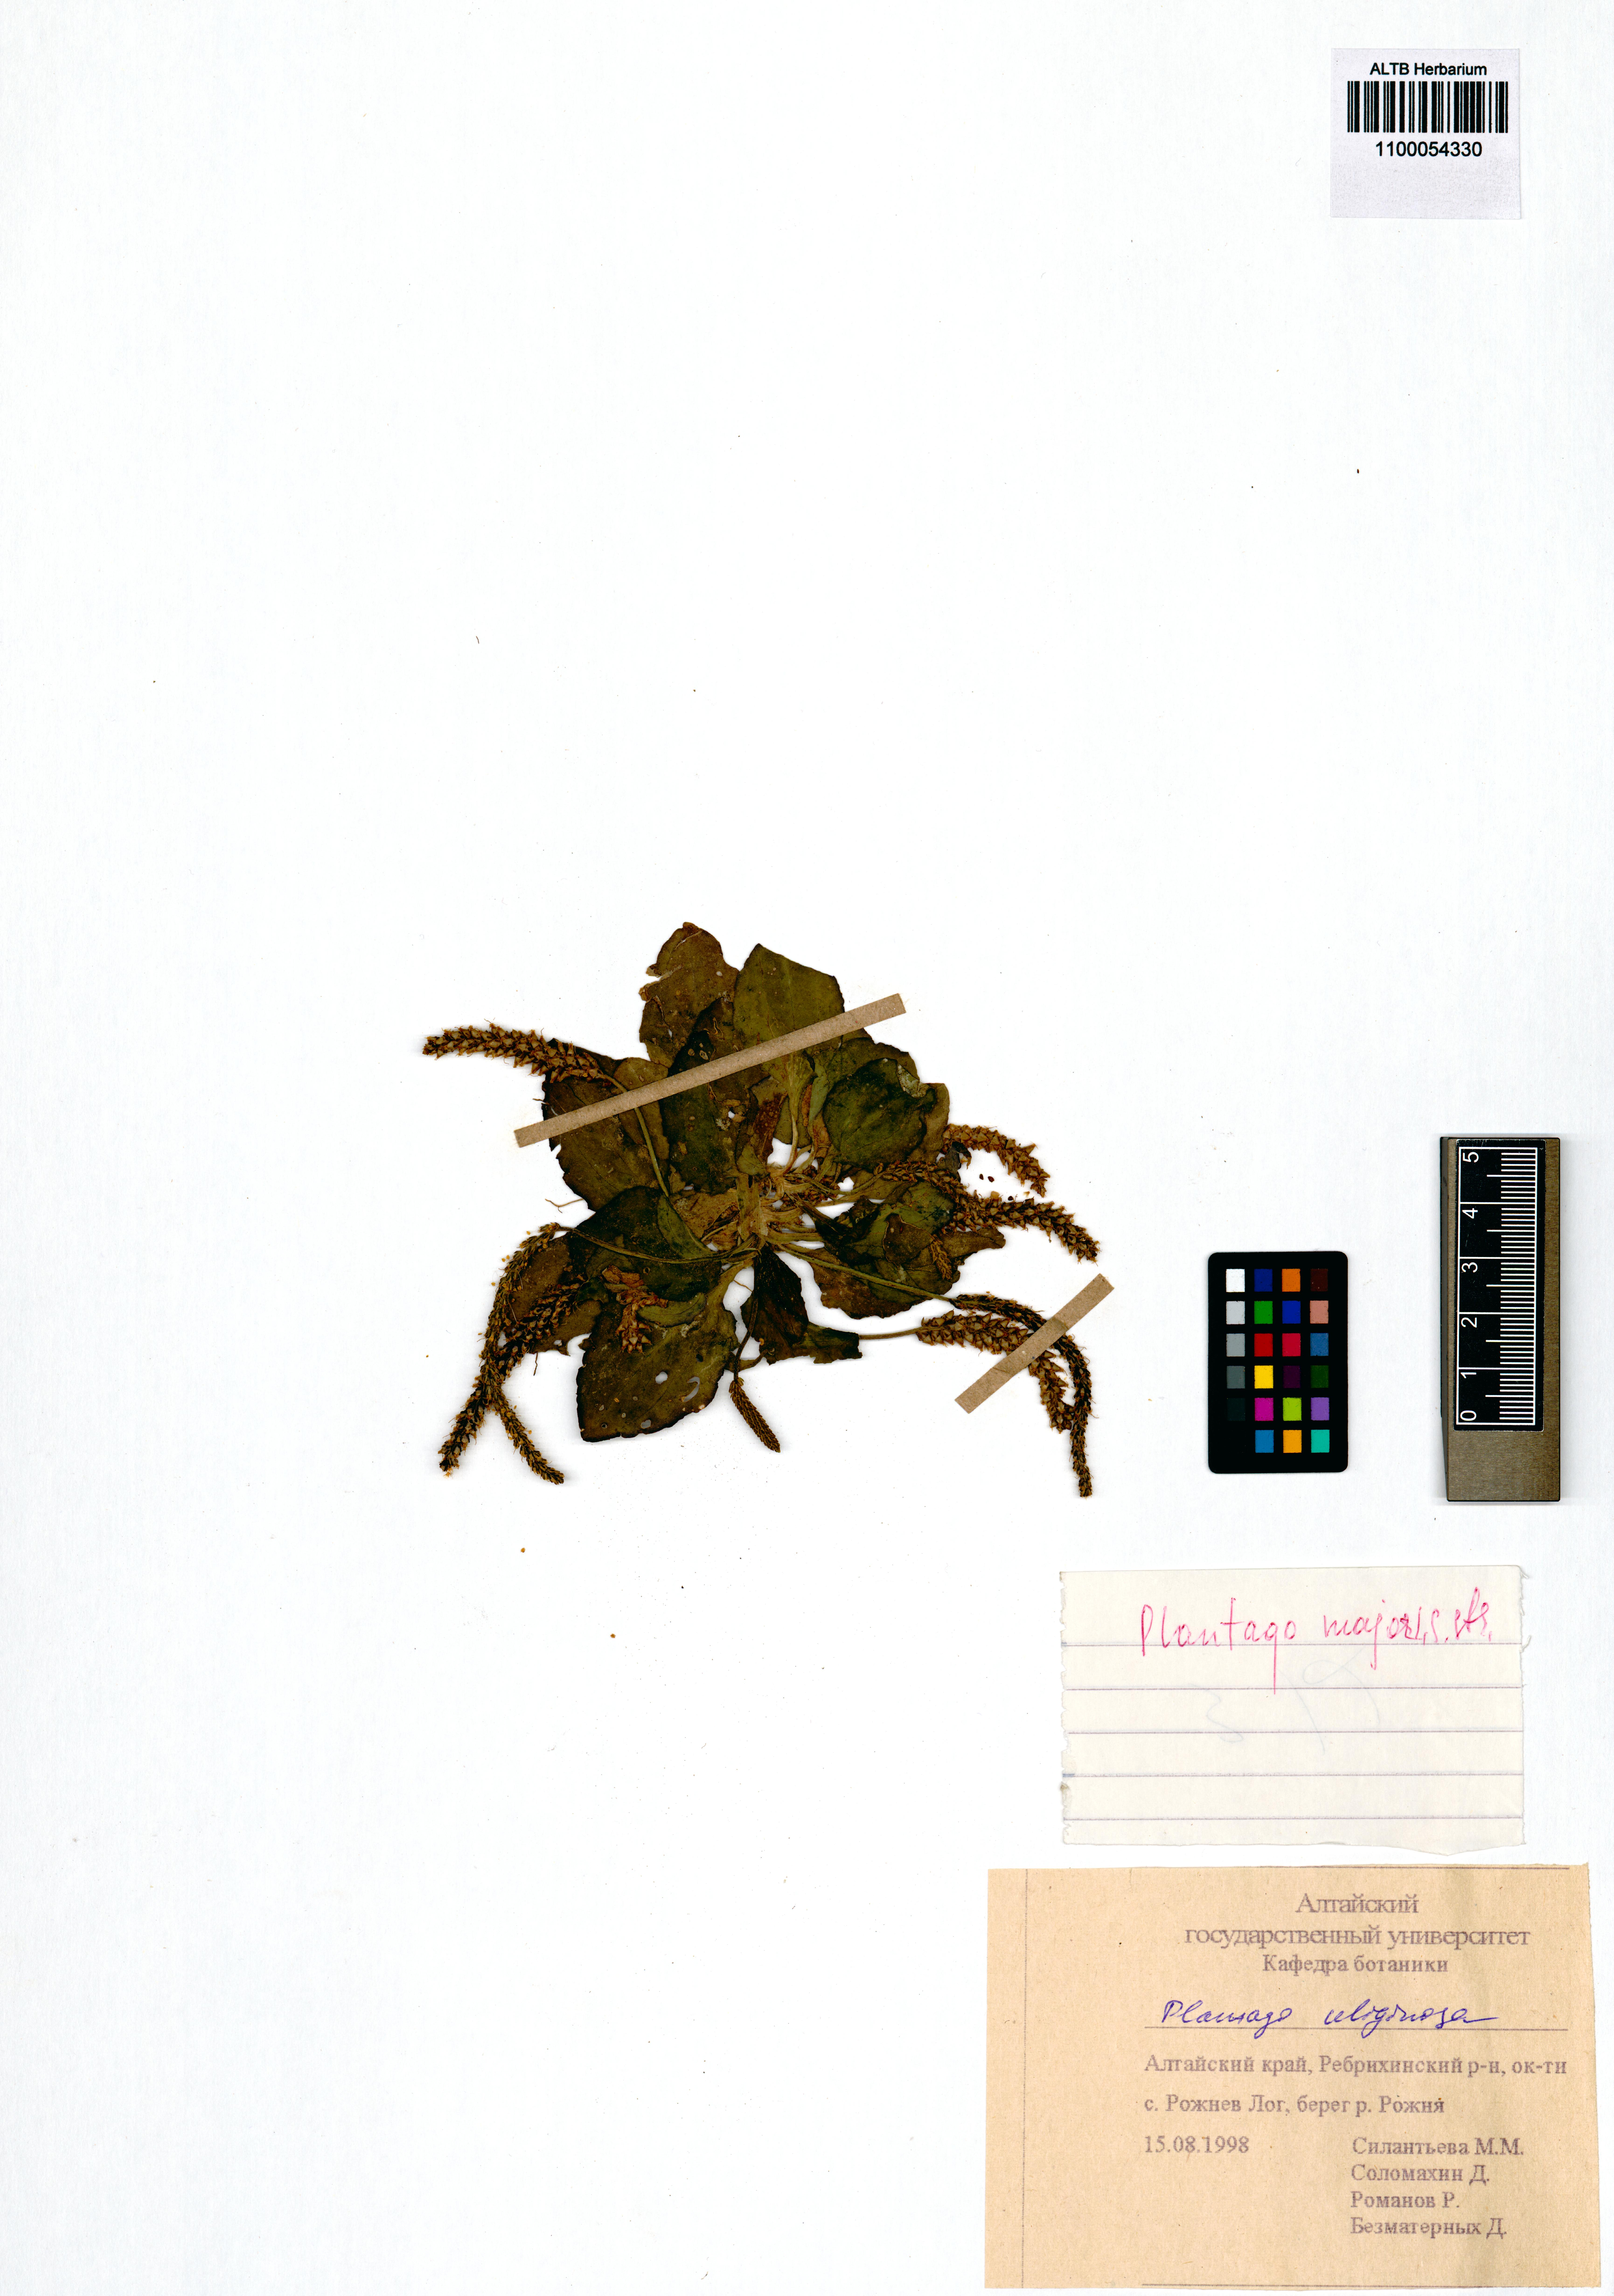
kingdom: Plantae
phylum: Tracheophyta
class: Magnoliopsida
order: Lamiales
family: Plantaginaceae
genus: Plantago
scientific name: Plantago major
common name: Common plantain
